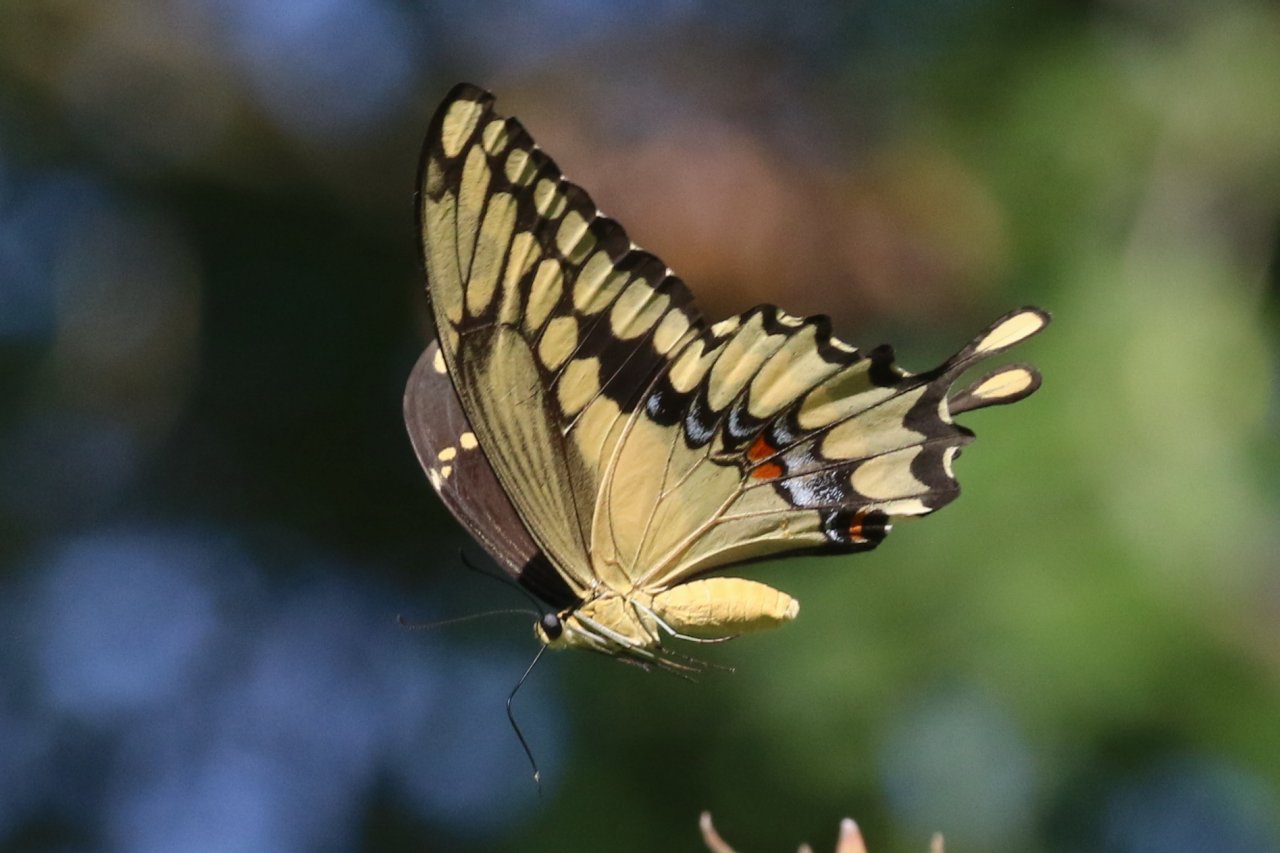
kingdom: Animalia
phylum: Arthropoda
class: Insecta
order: Lepidoptera
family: Papilionidae
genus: Papilio
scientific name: Papilio rumiko
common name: Western Giant Swallowtail
